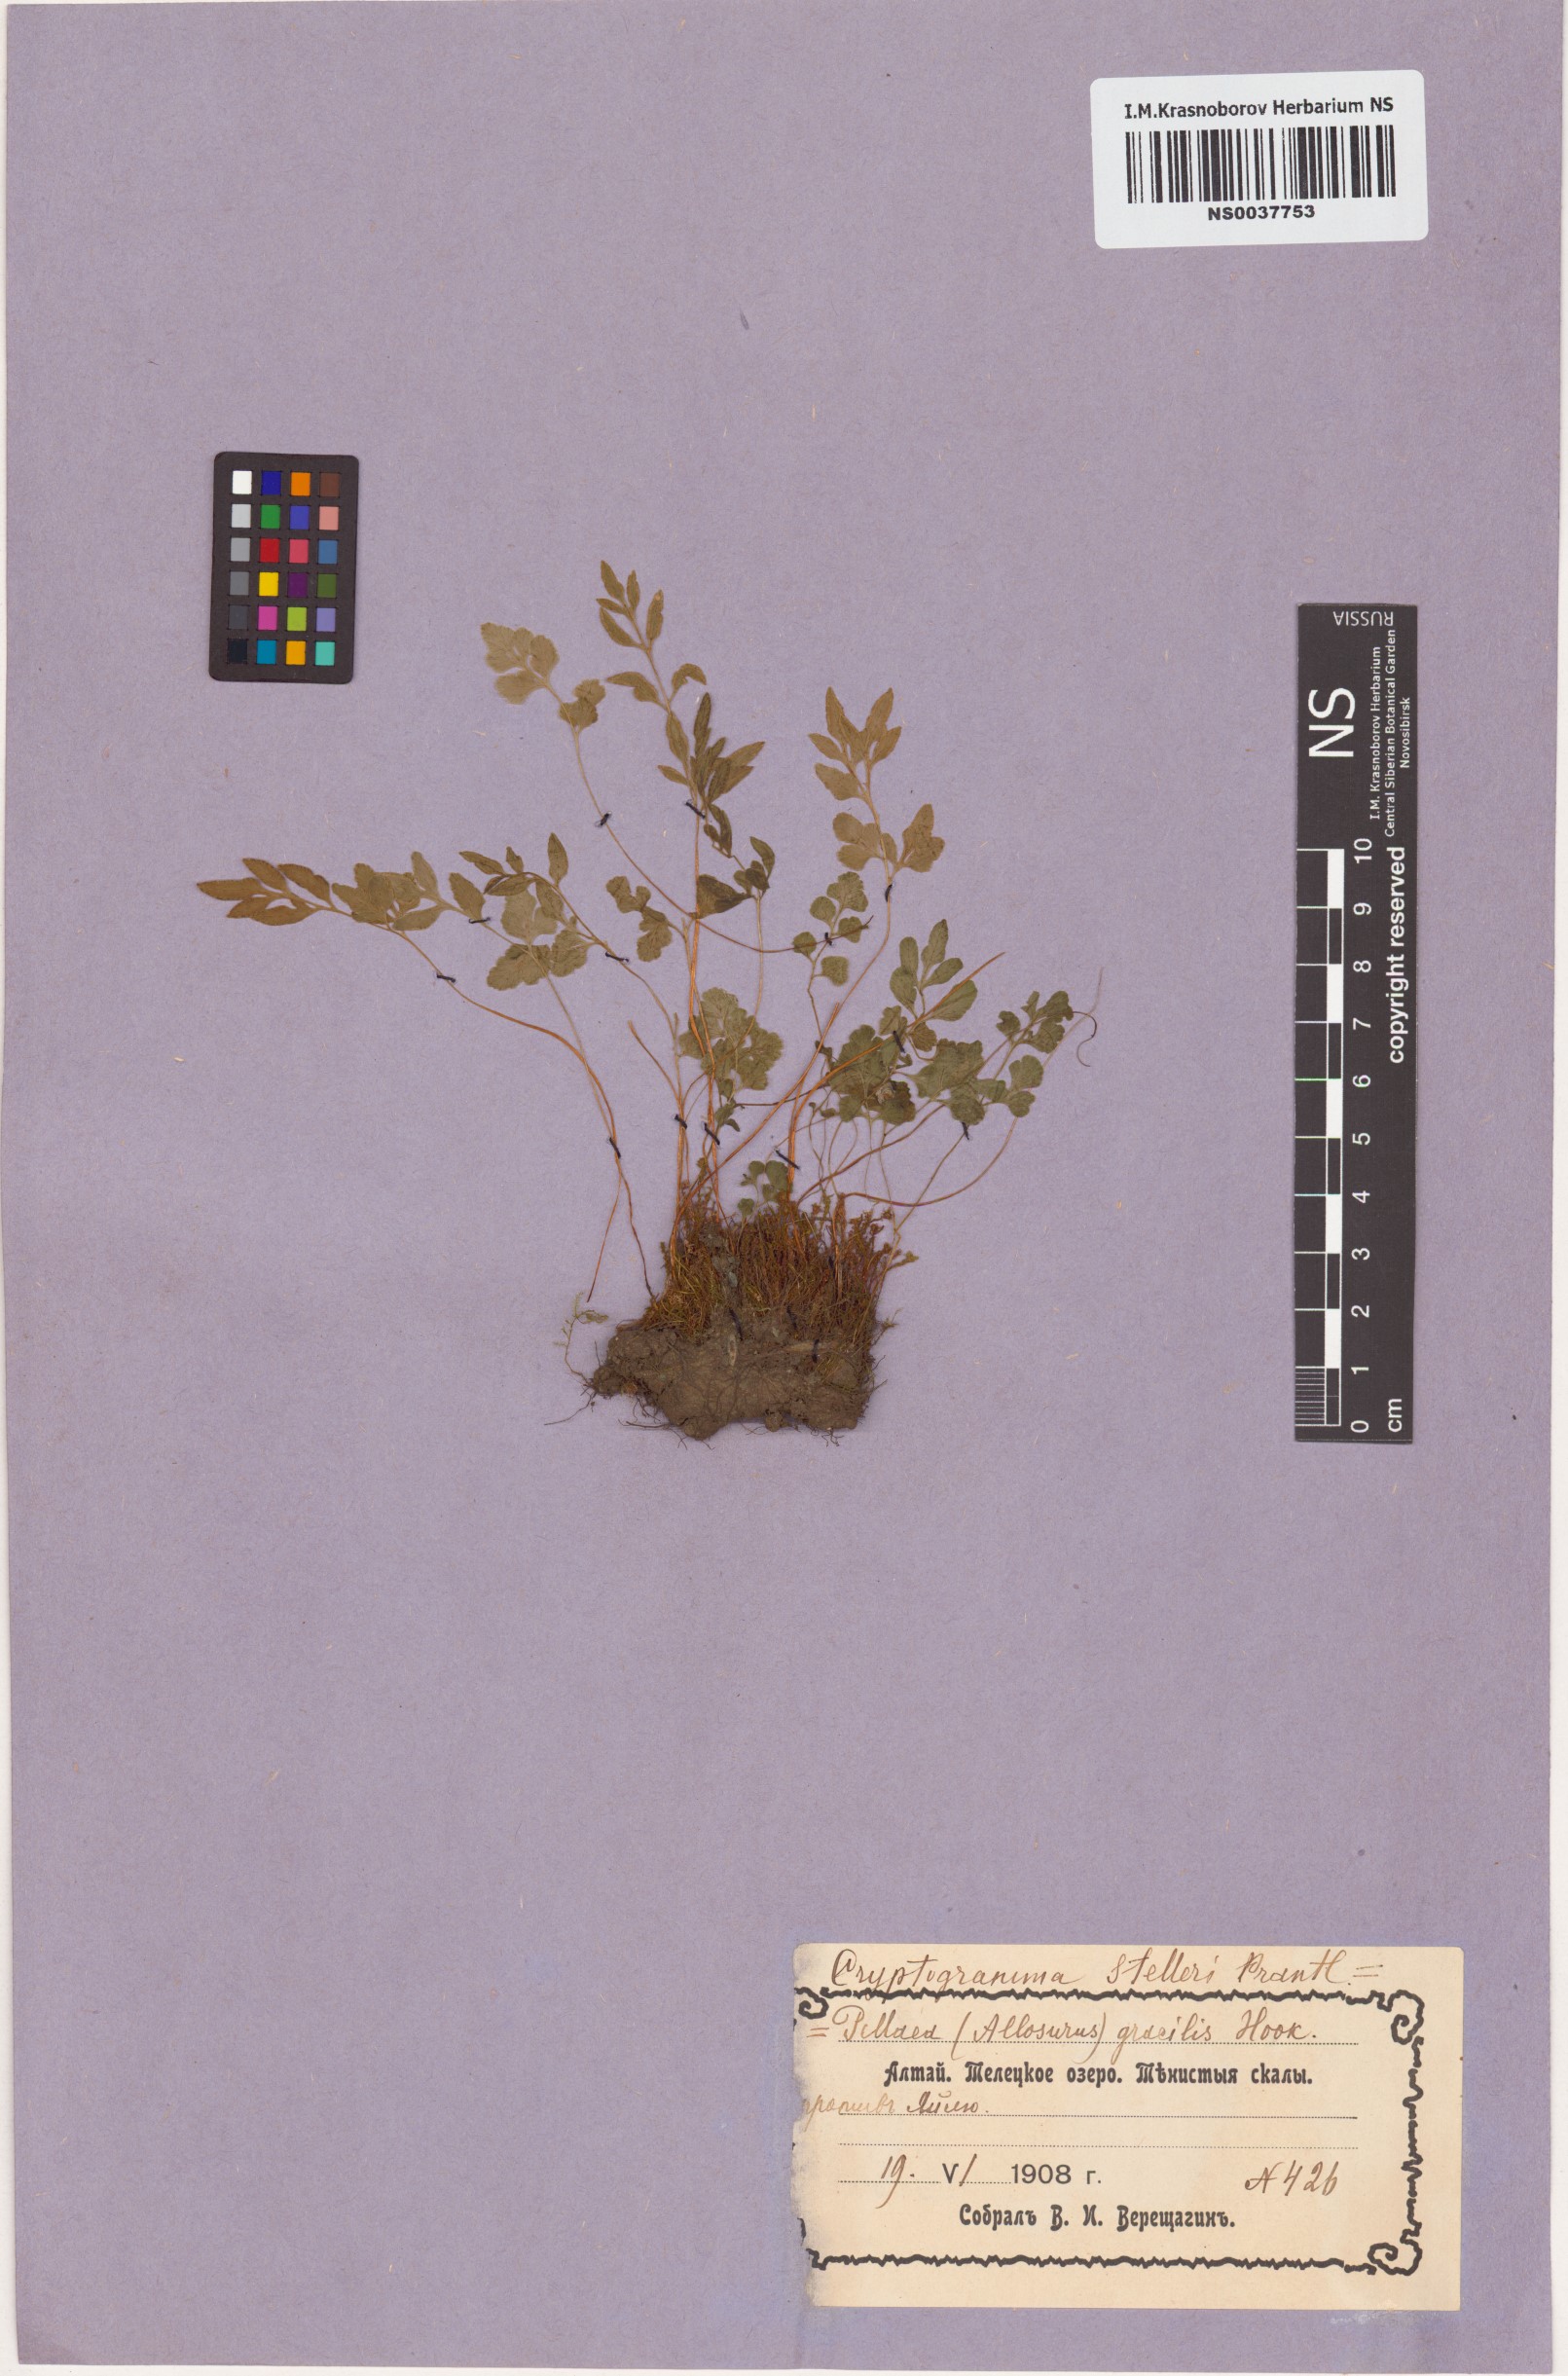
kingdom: Plantae
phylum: Tracheophyta
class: Polypodiopsida
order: Polypodiales
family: Pteridaceae
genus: Cryptogramma
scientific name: Cryptogramma stelleri
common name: Cliff-brake
